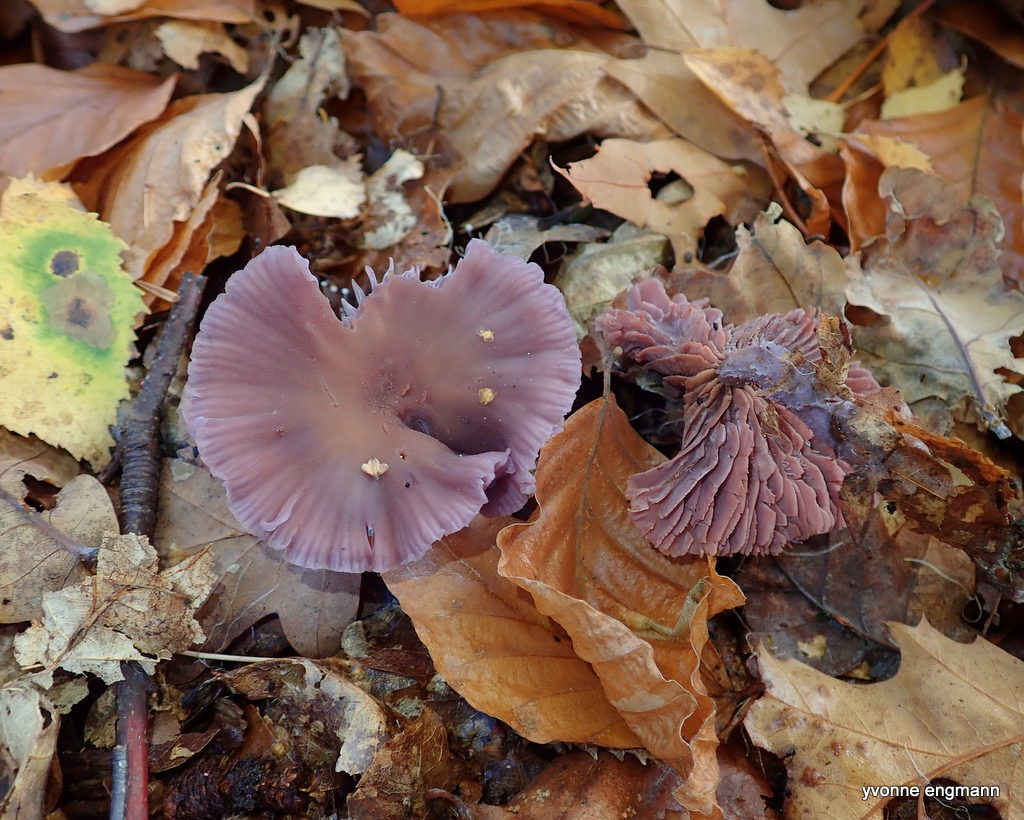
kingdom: Fungi
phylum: Basidiomycota
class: Agaricomycetes
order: Agaricales
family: Hydnangiaceae
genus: Laccaria
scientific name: Laccaria amethystina
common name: violet ametysthat
